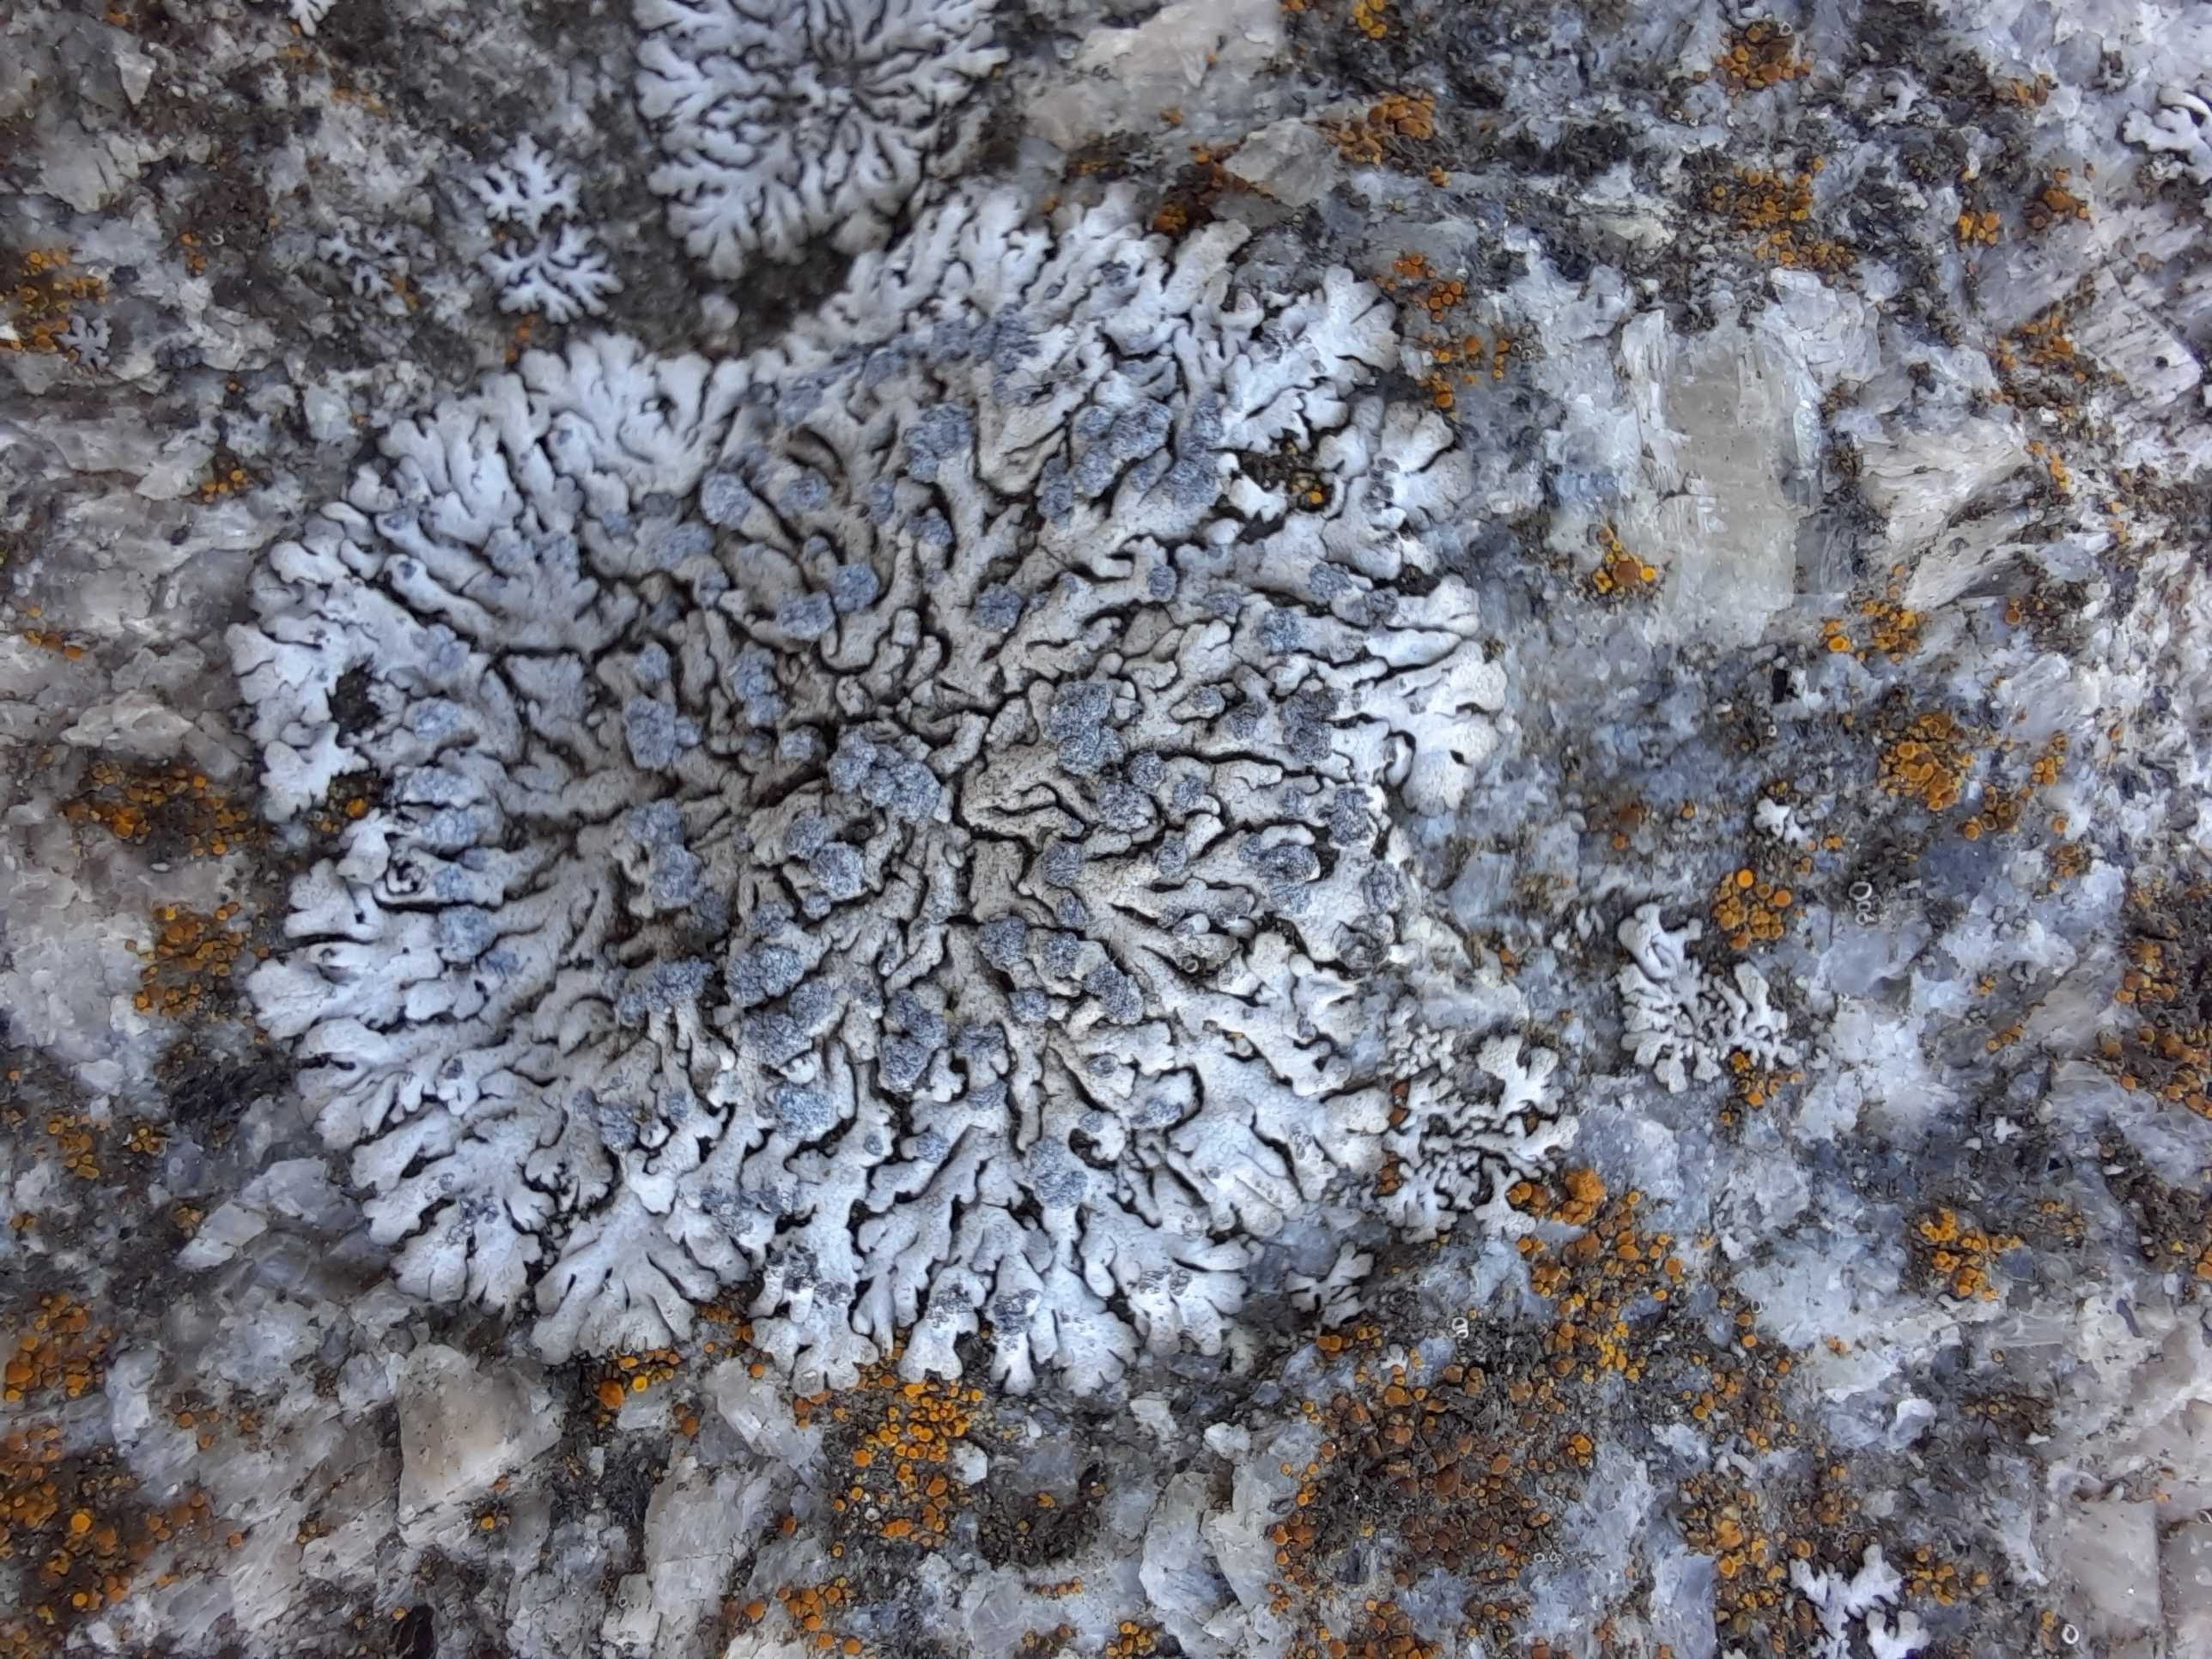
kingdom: Fungi
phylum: Ascomycota
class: Lecanoromycetes
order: Caliciales
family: Physciaceae
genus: Physcia
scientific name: Physcia caesia
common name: blågrå rosetlav
